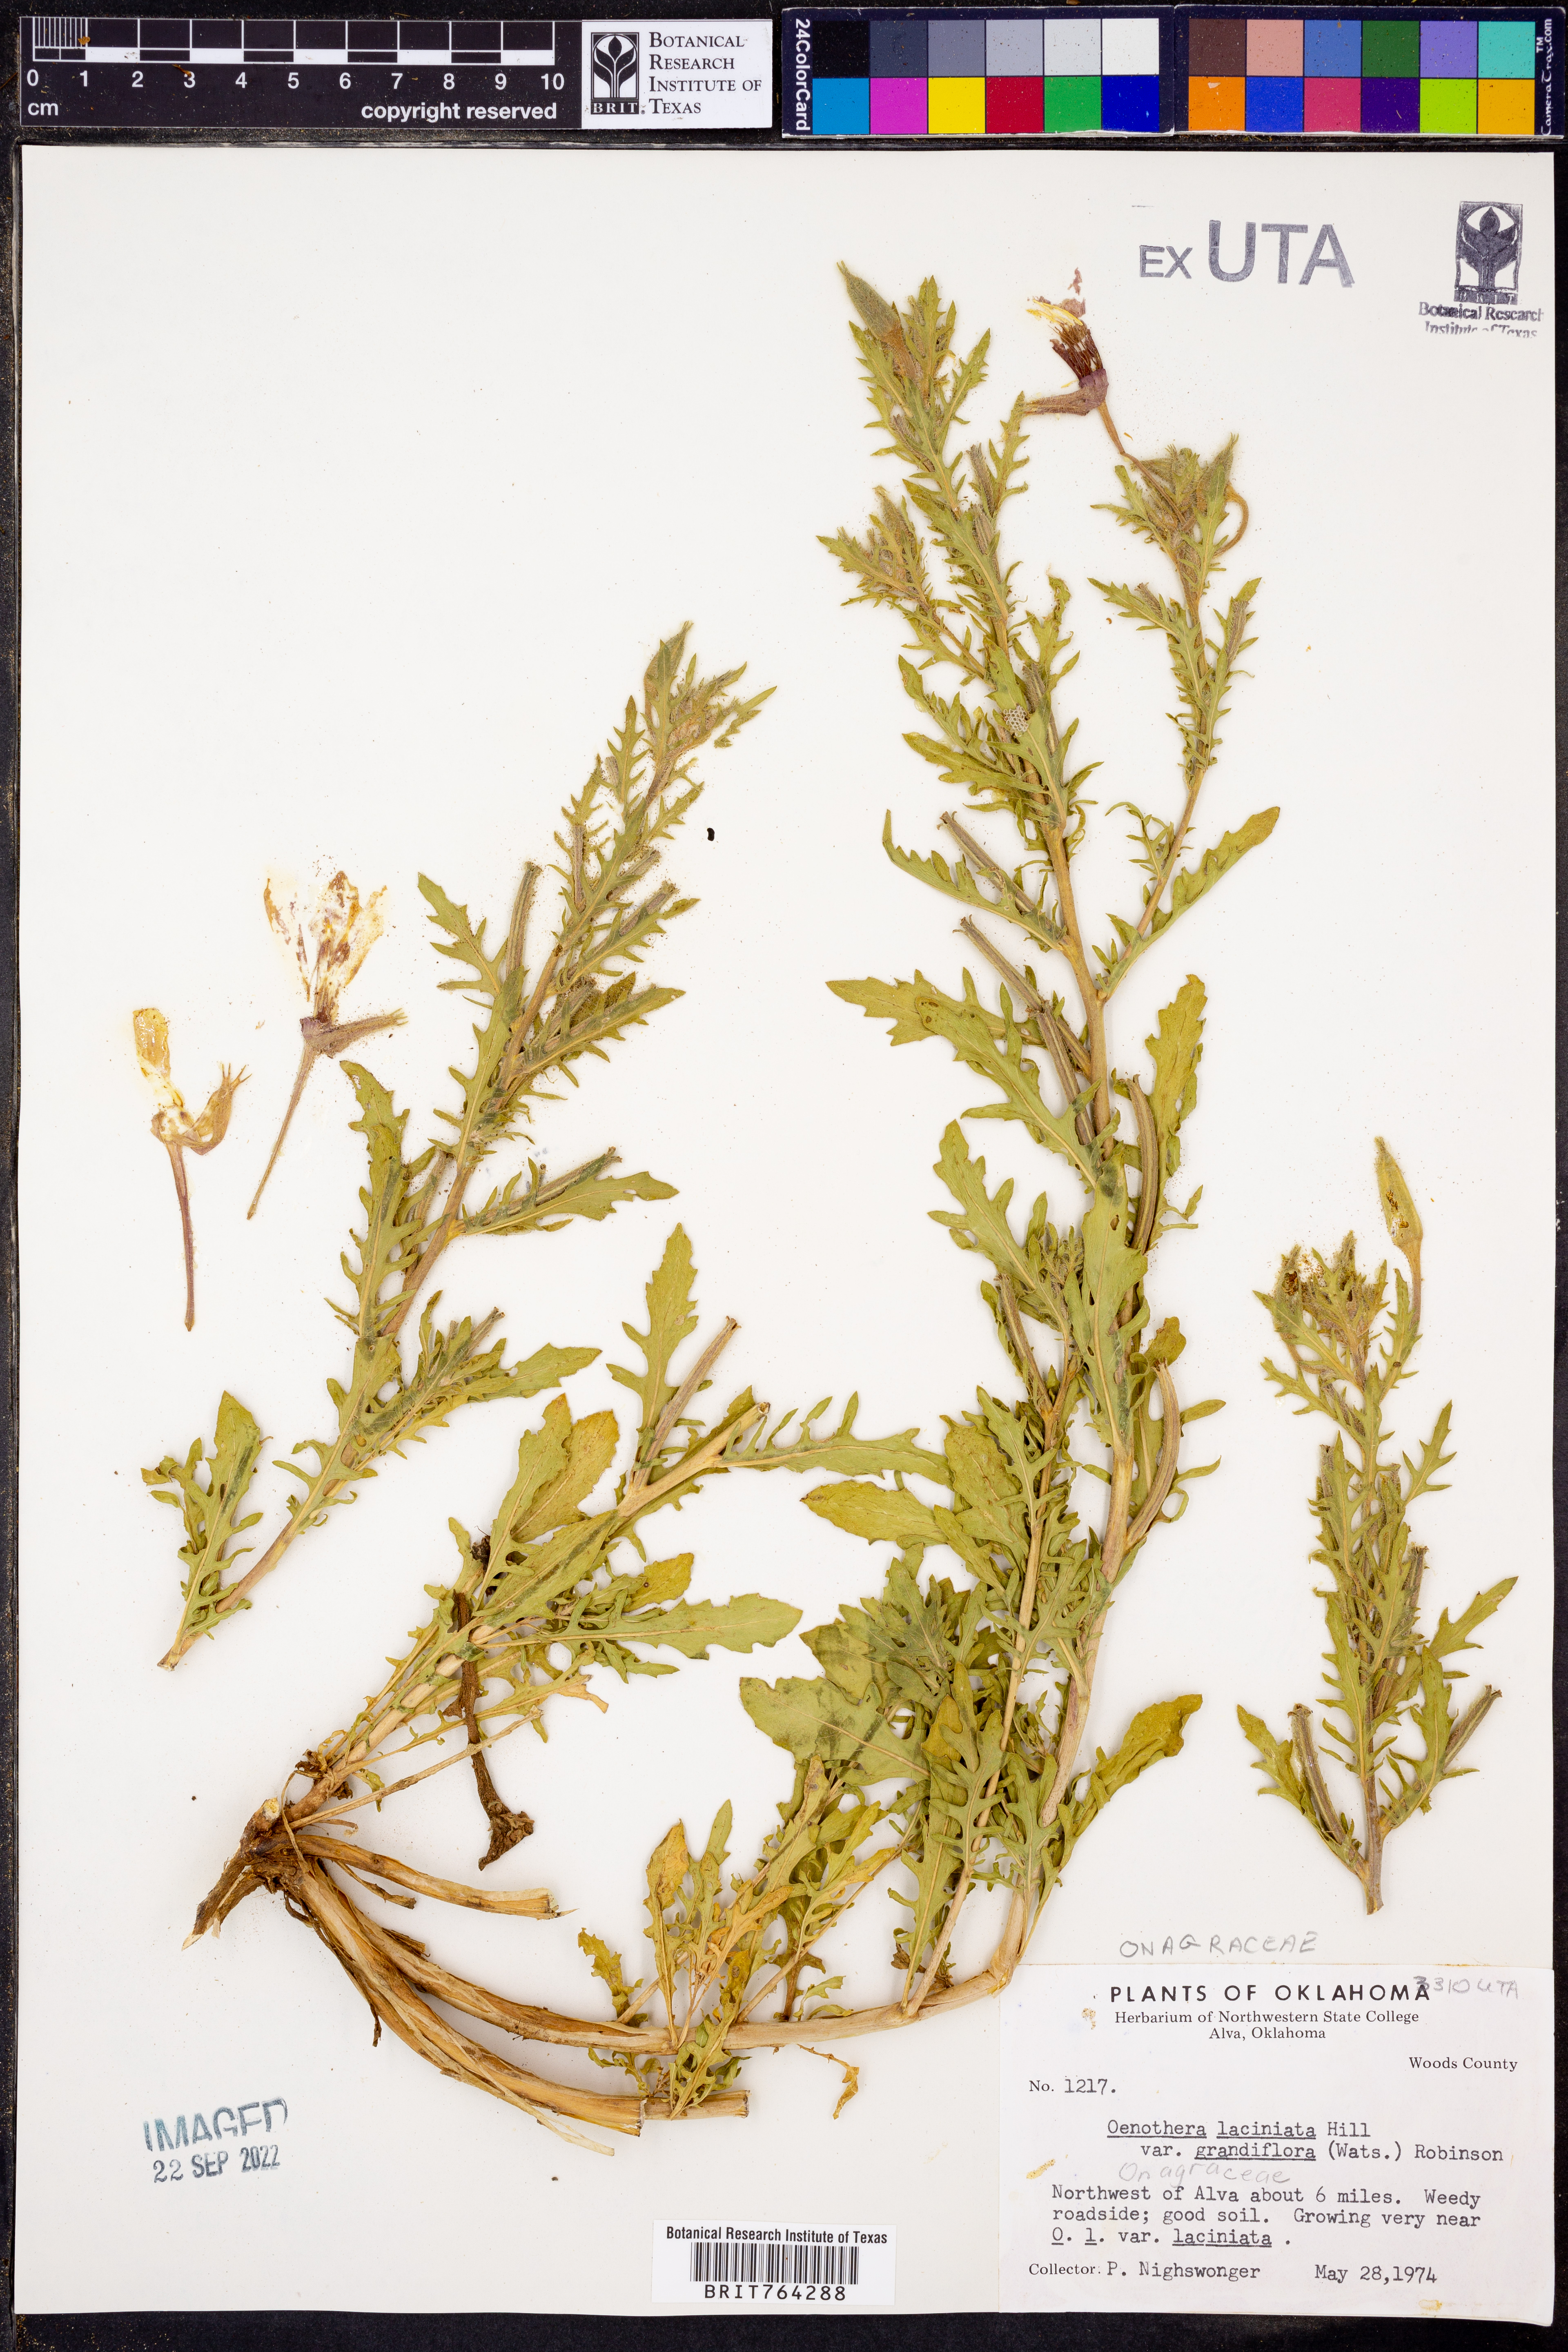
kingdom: Plantae
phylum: Tracheophyta
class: Magnoliopsida
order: Myrtales
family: Onagraceae
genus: Oenothera
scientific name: Oenothera grandis
